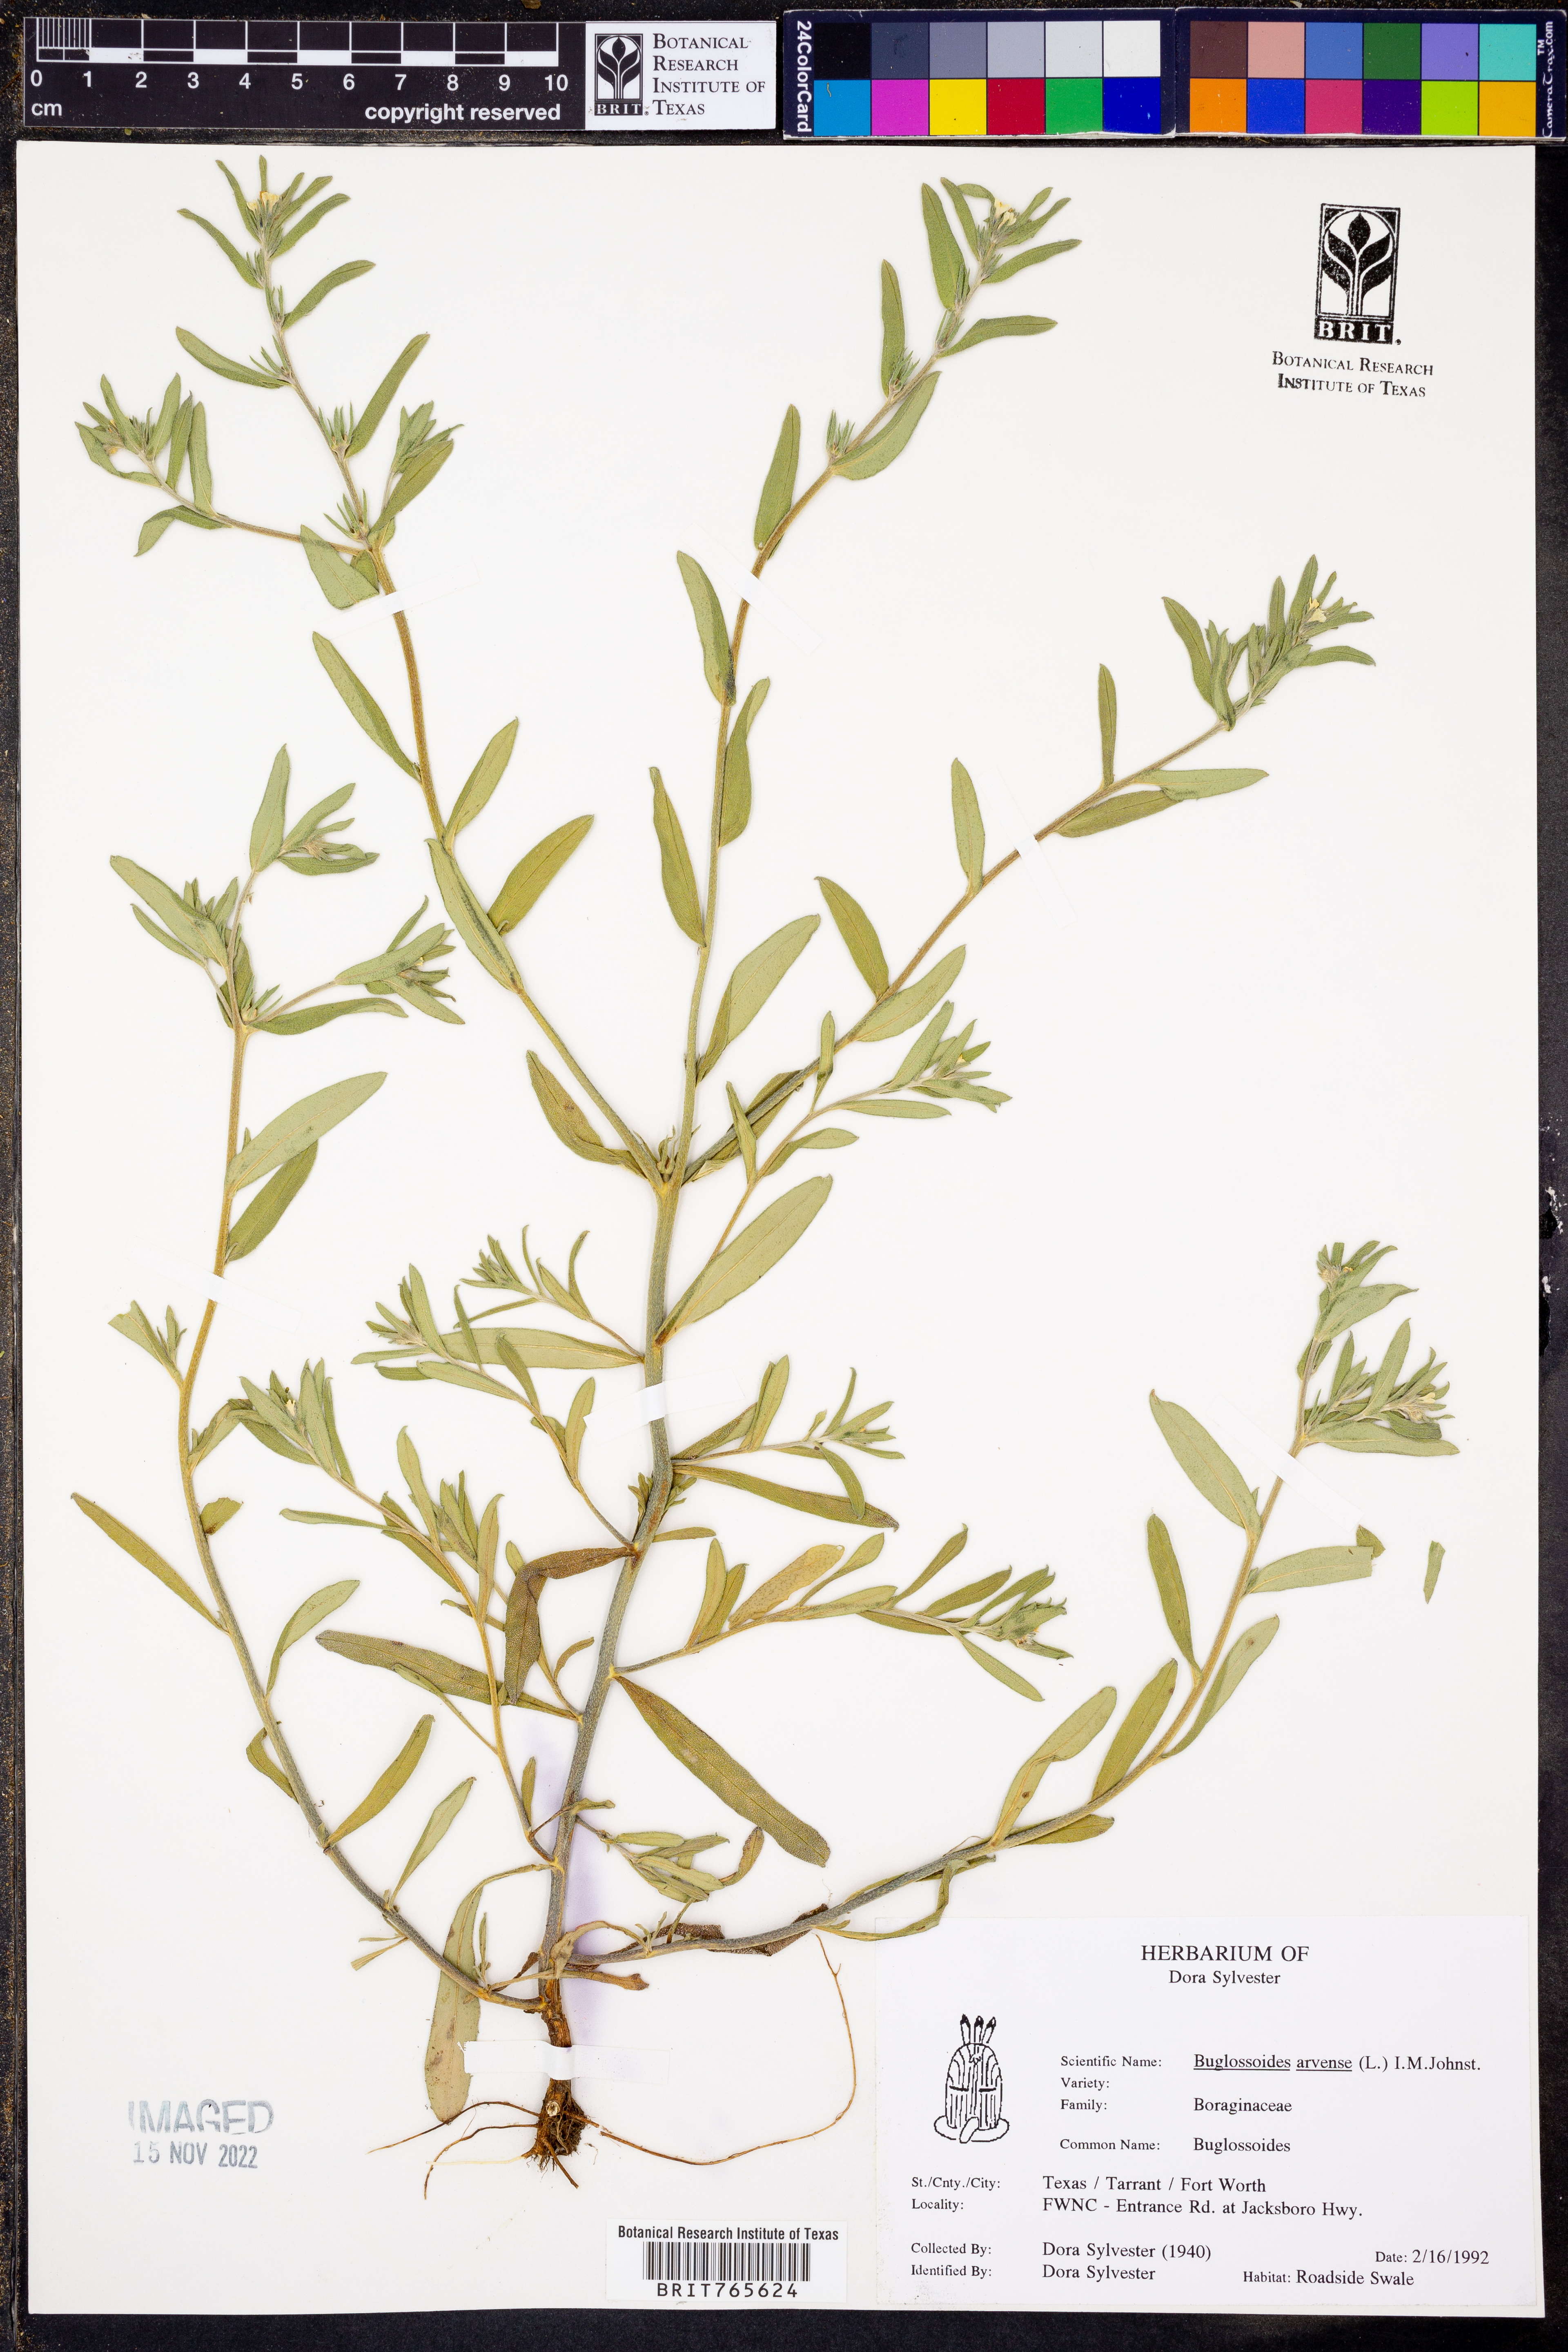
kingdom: Plantae
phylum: Tracheophyta
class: Magnoliopsida
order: Boraginales
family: Boraginaceae
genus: Buglossoides
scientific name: Buglossoides arvensis
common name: Corn gromwell
